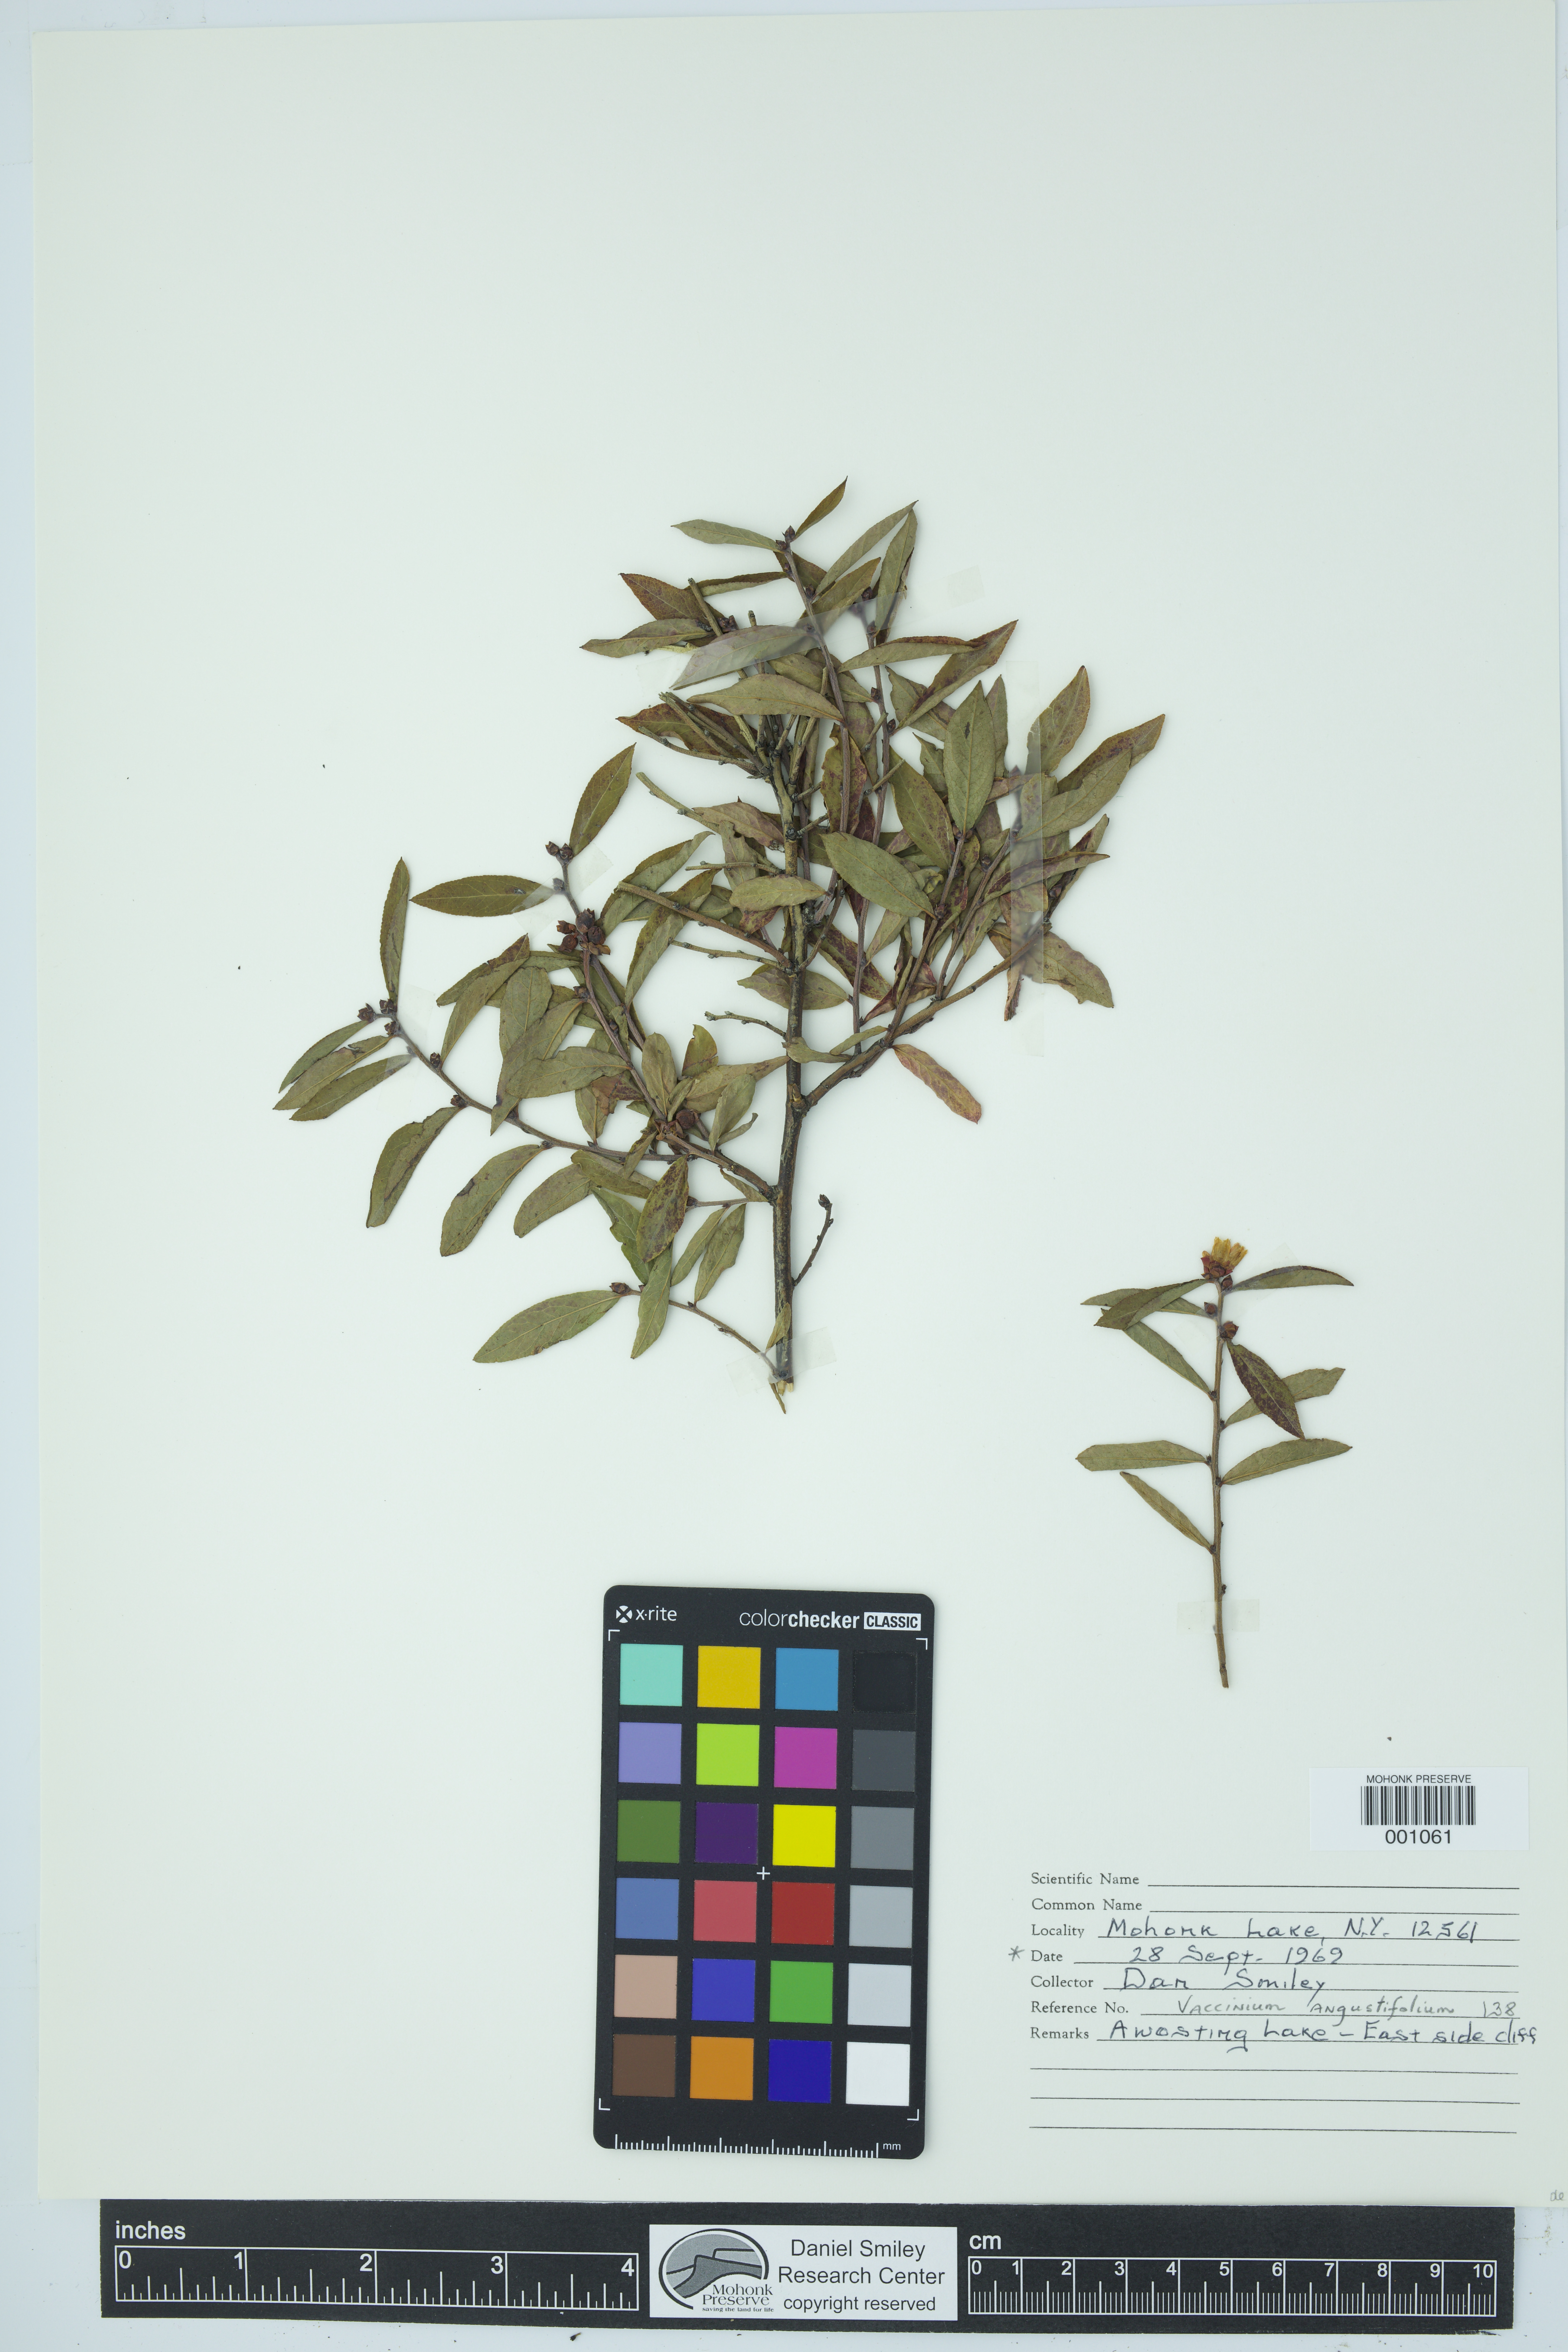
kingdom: Plantae
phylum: Tracheophyta
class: Magnoliopsida
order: Ericales
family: Ericaceae
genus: Vaccinium
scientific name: Vaccinium angustifolium
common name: Early lowbush blueberry
